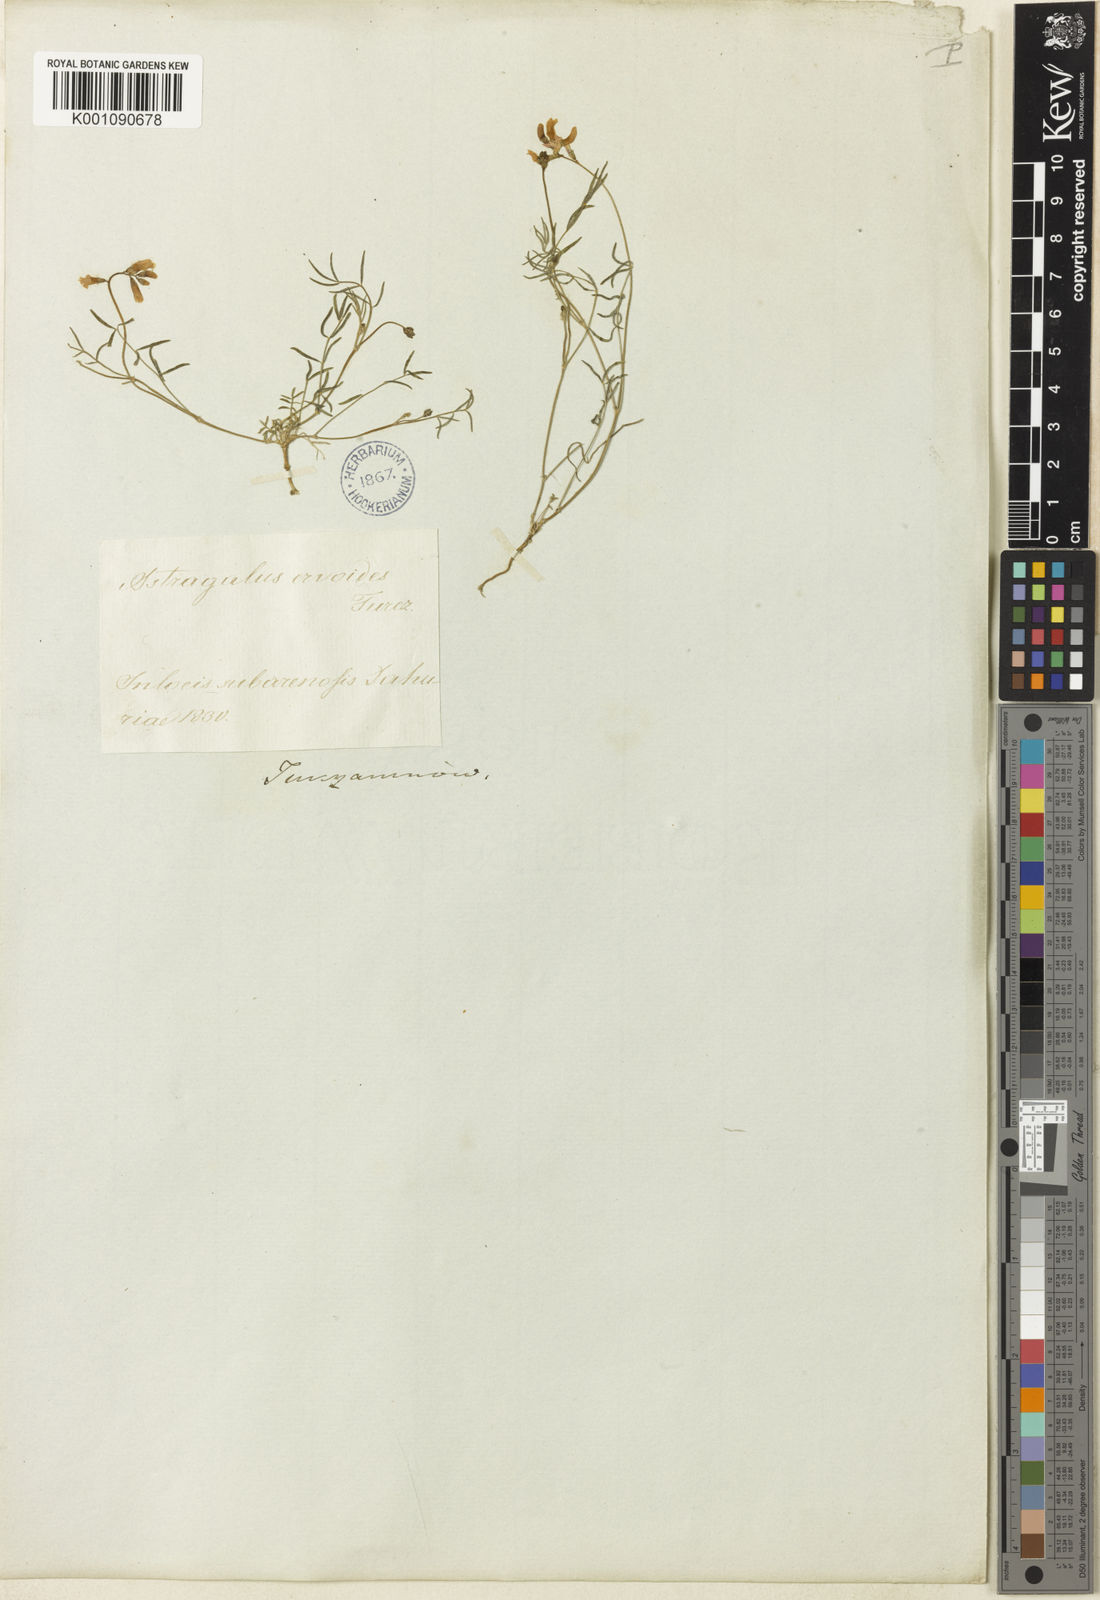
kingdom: Plantae
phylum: Tracheophyta
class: Magnoliopsida
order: Fabales
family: Fabaceae
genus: Astragalus
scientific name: Astragalus
